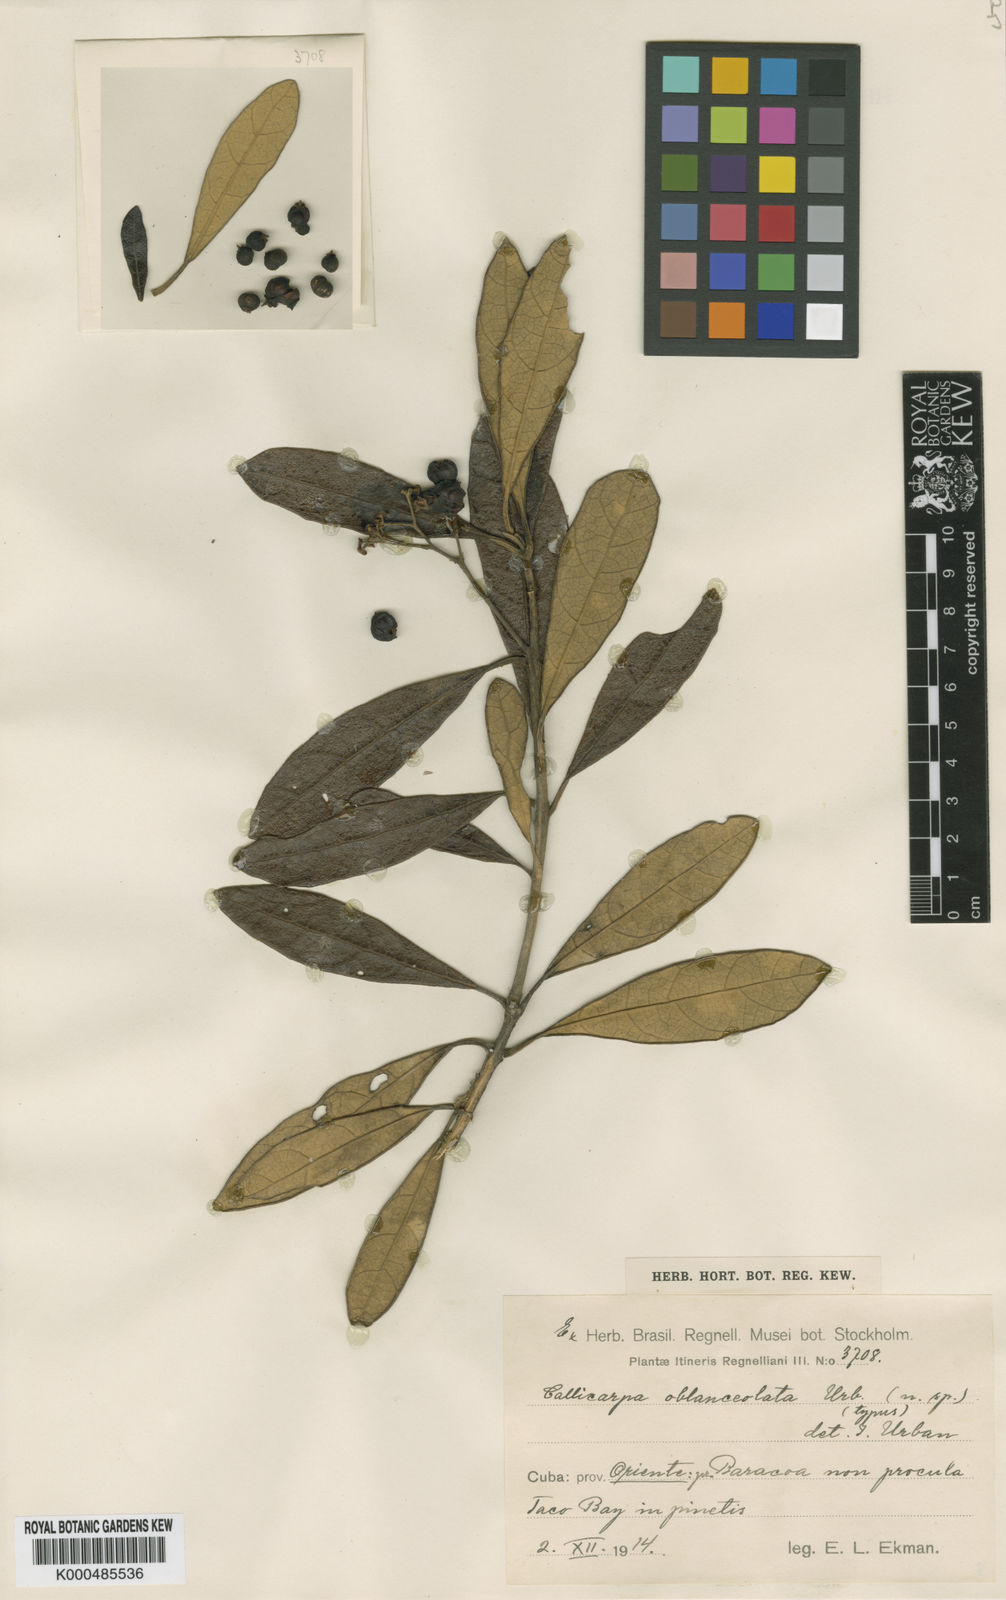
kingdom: Plantae
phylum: Tracheophyta
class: Magnoliopsida
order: Lamiales
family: Lamiaceae
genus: Callicarpa
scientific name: Callicarpa oblanceolata
